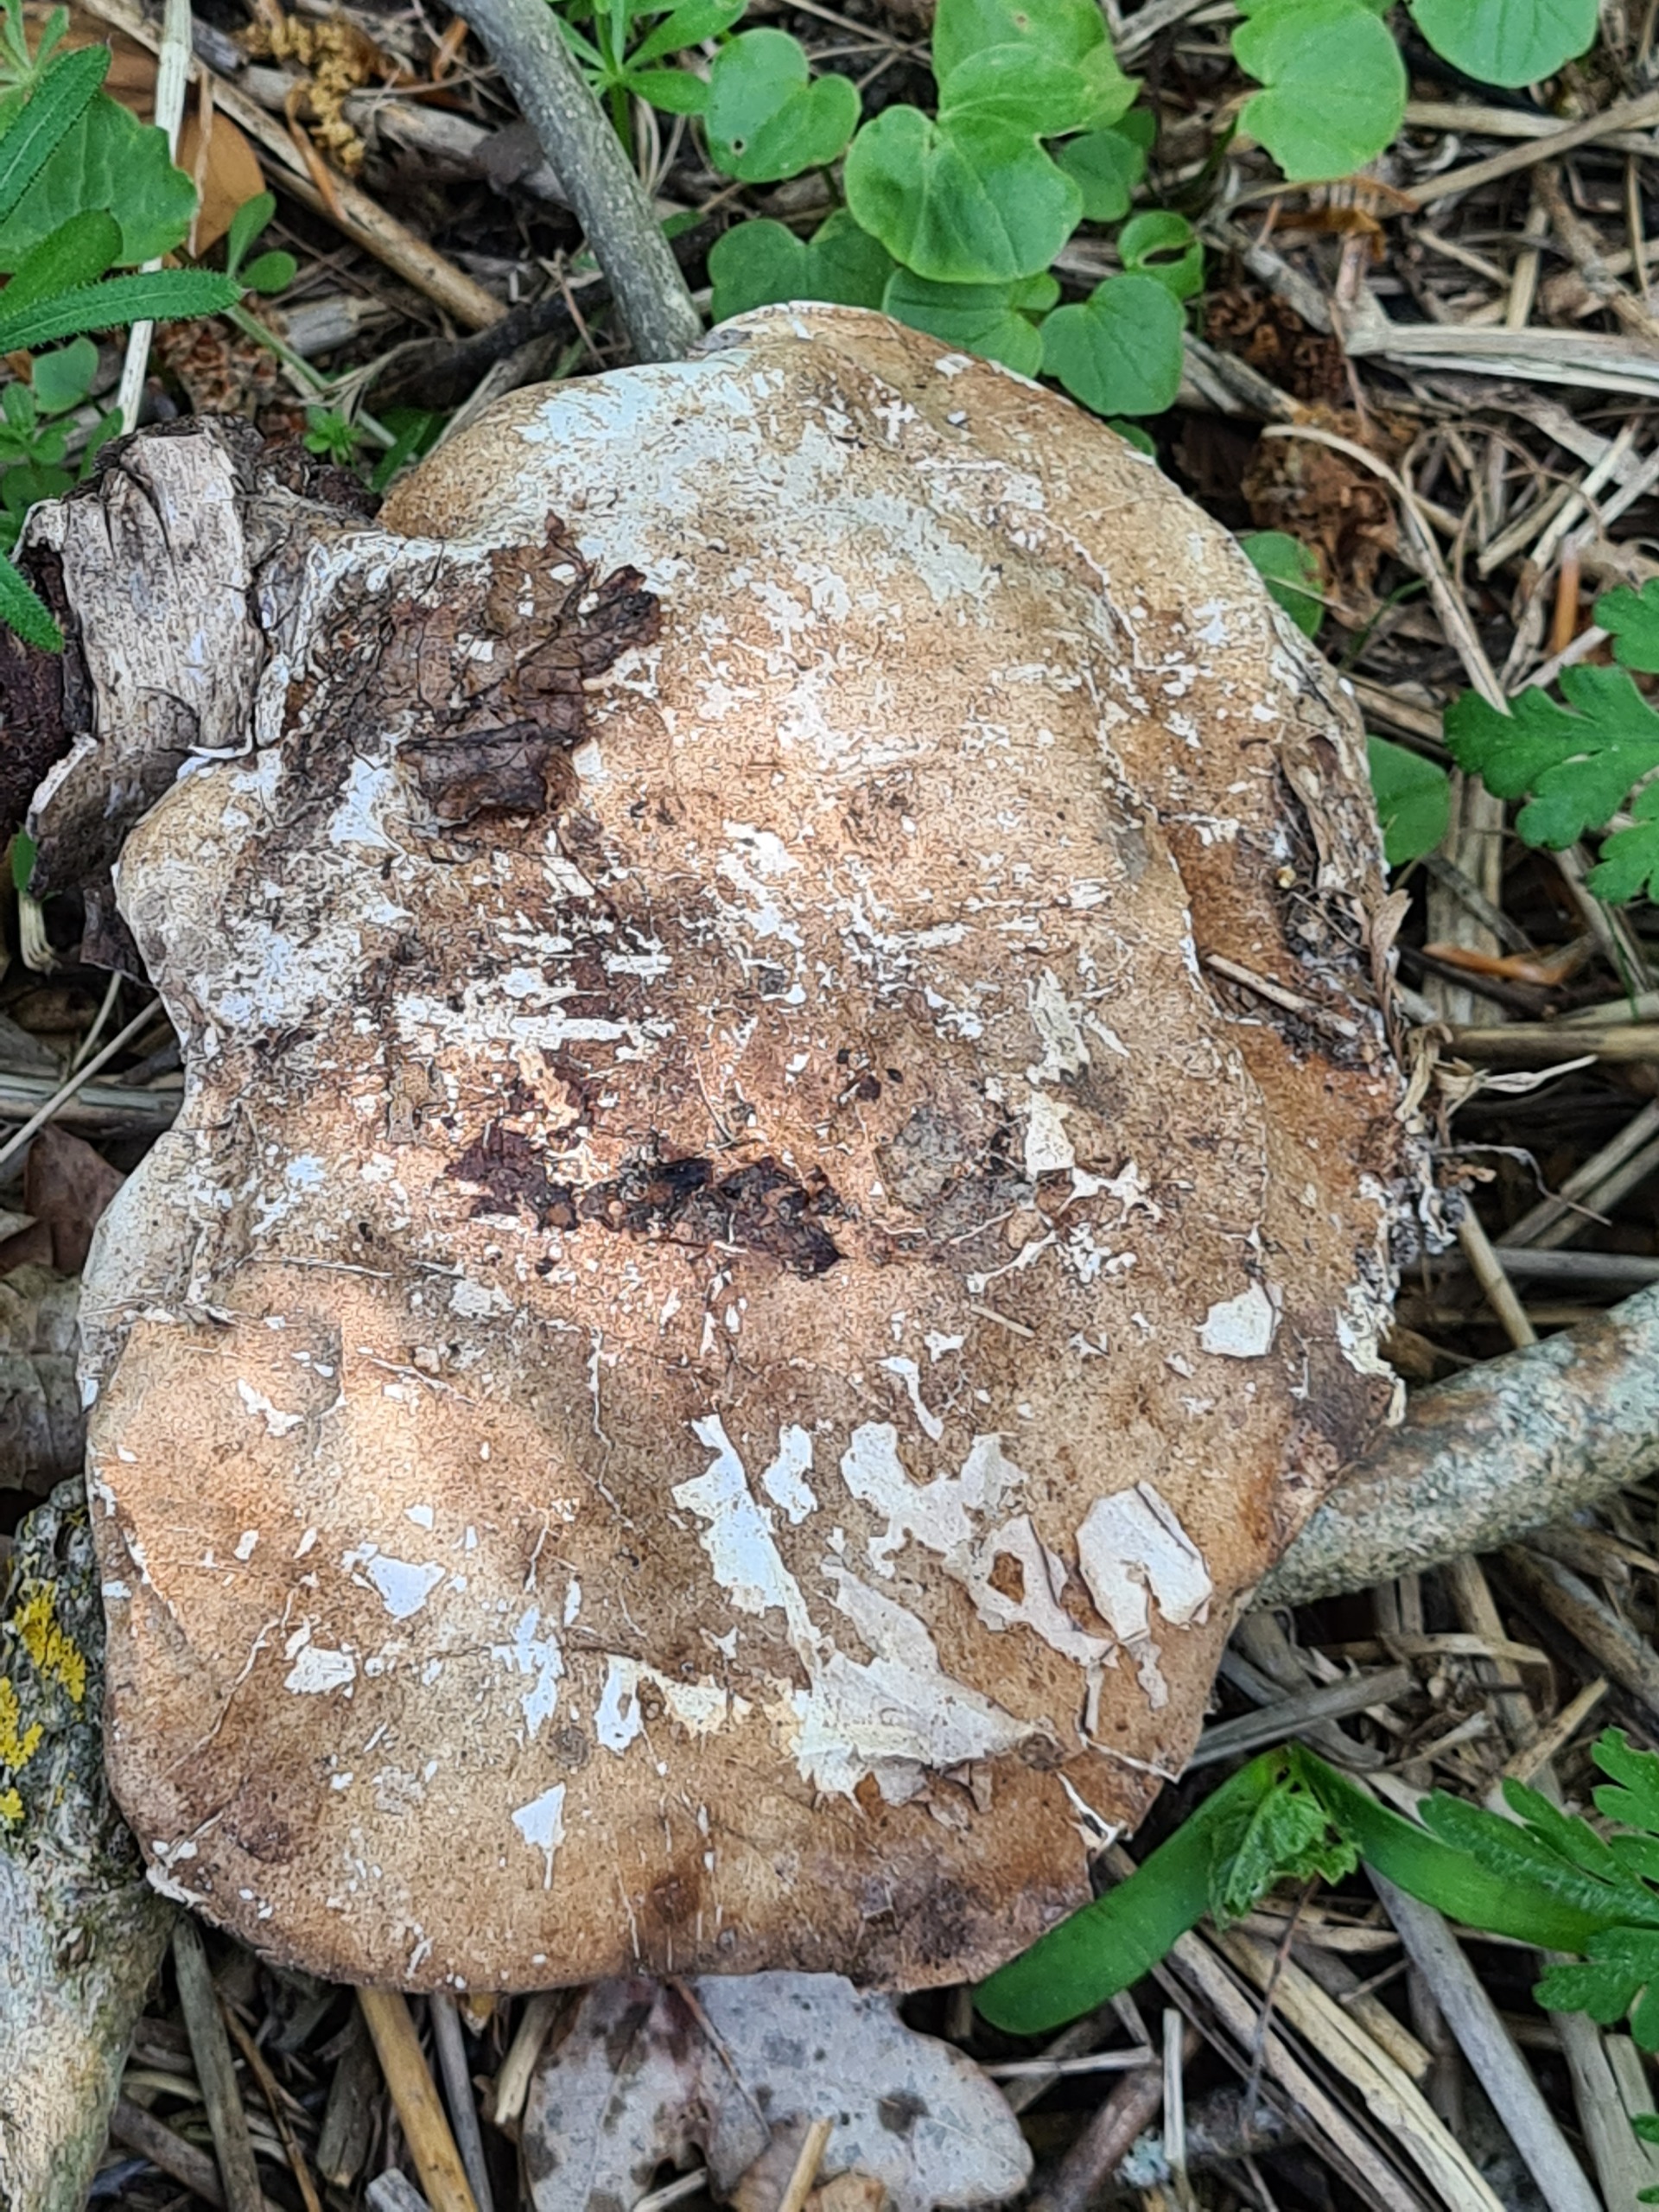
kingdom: Fungi
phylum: Basidiomycota
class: Agaricomycetes
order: Polyporales
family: Fomitopsidaceae
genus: Fomitopsis
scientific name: Fomitopsis betulina
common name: Birkeporesvamp
